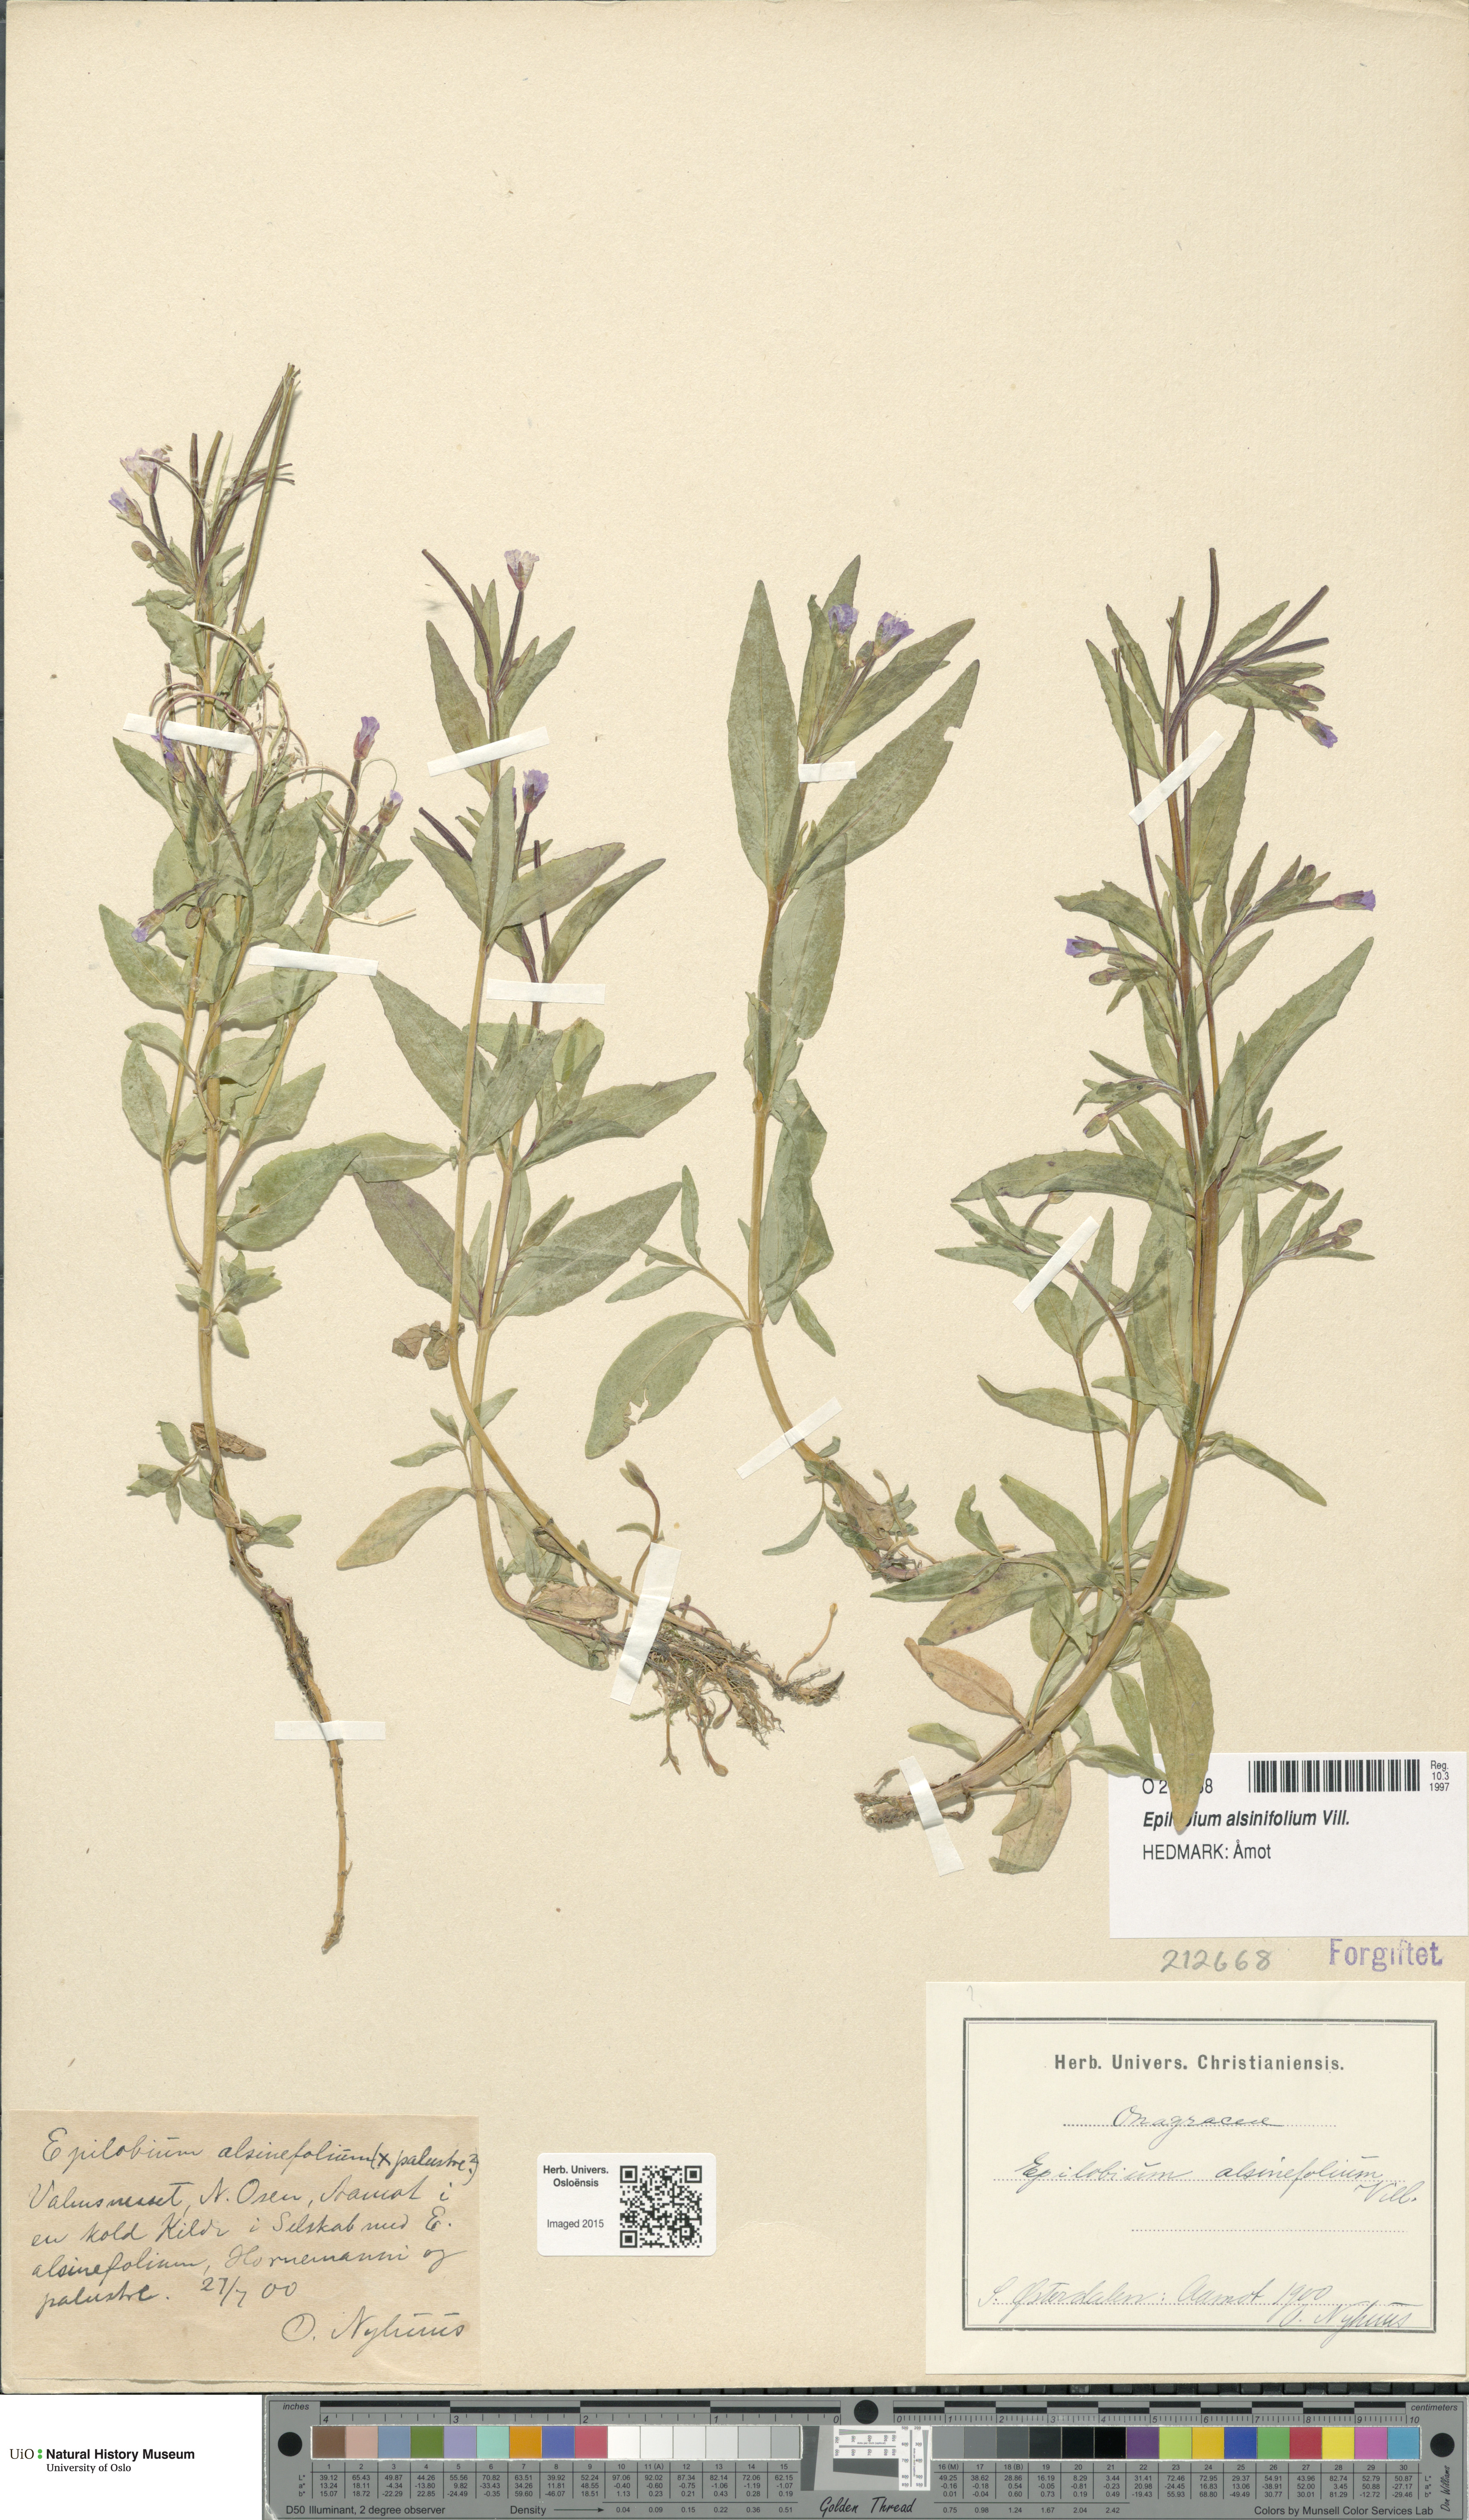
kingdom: Plantae
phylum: Tracheophyta
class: Magnoliopsida
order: Myrtales
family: Onagraceae
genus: Epilobium
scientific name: Epilobium alsinifolium
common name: Chickweed willowherb
